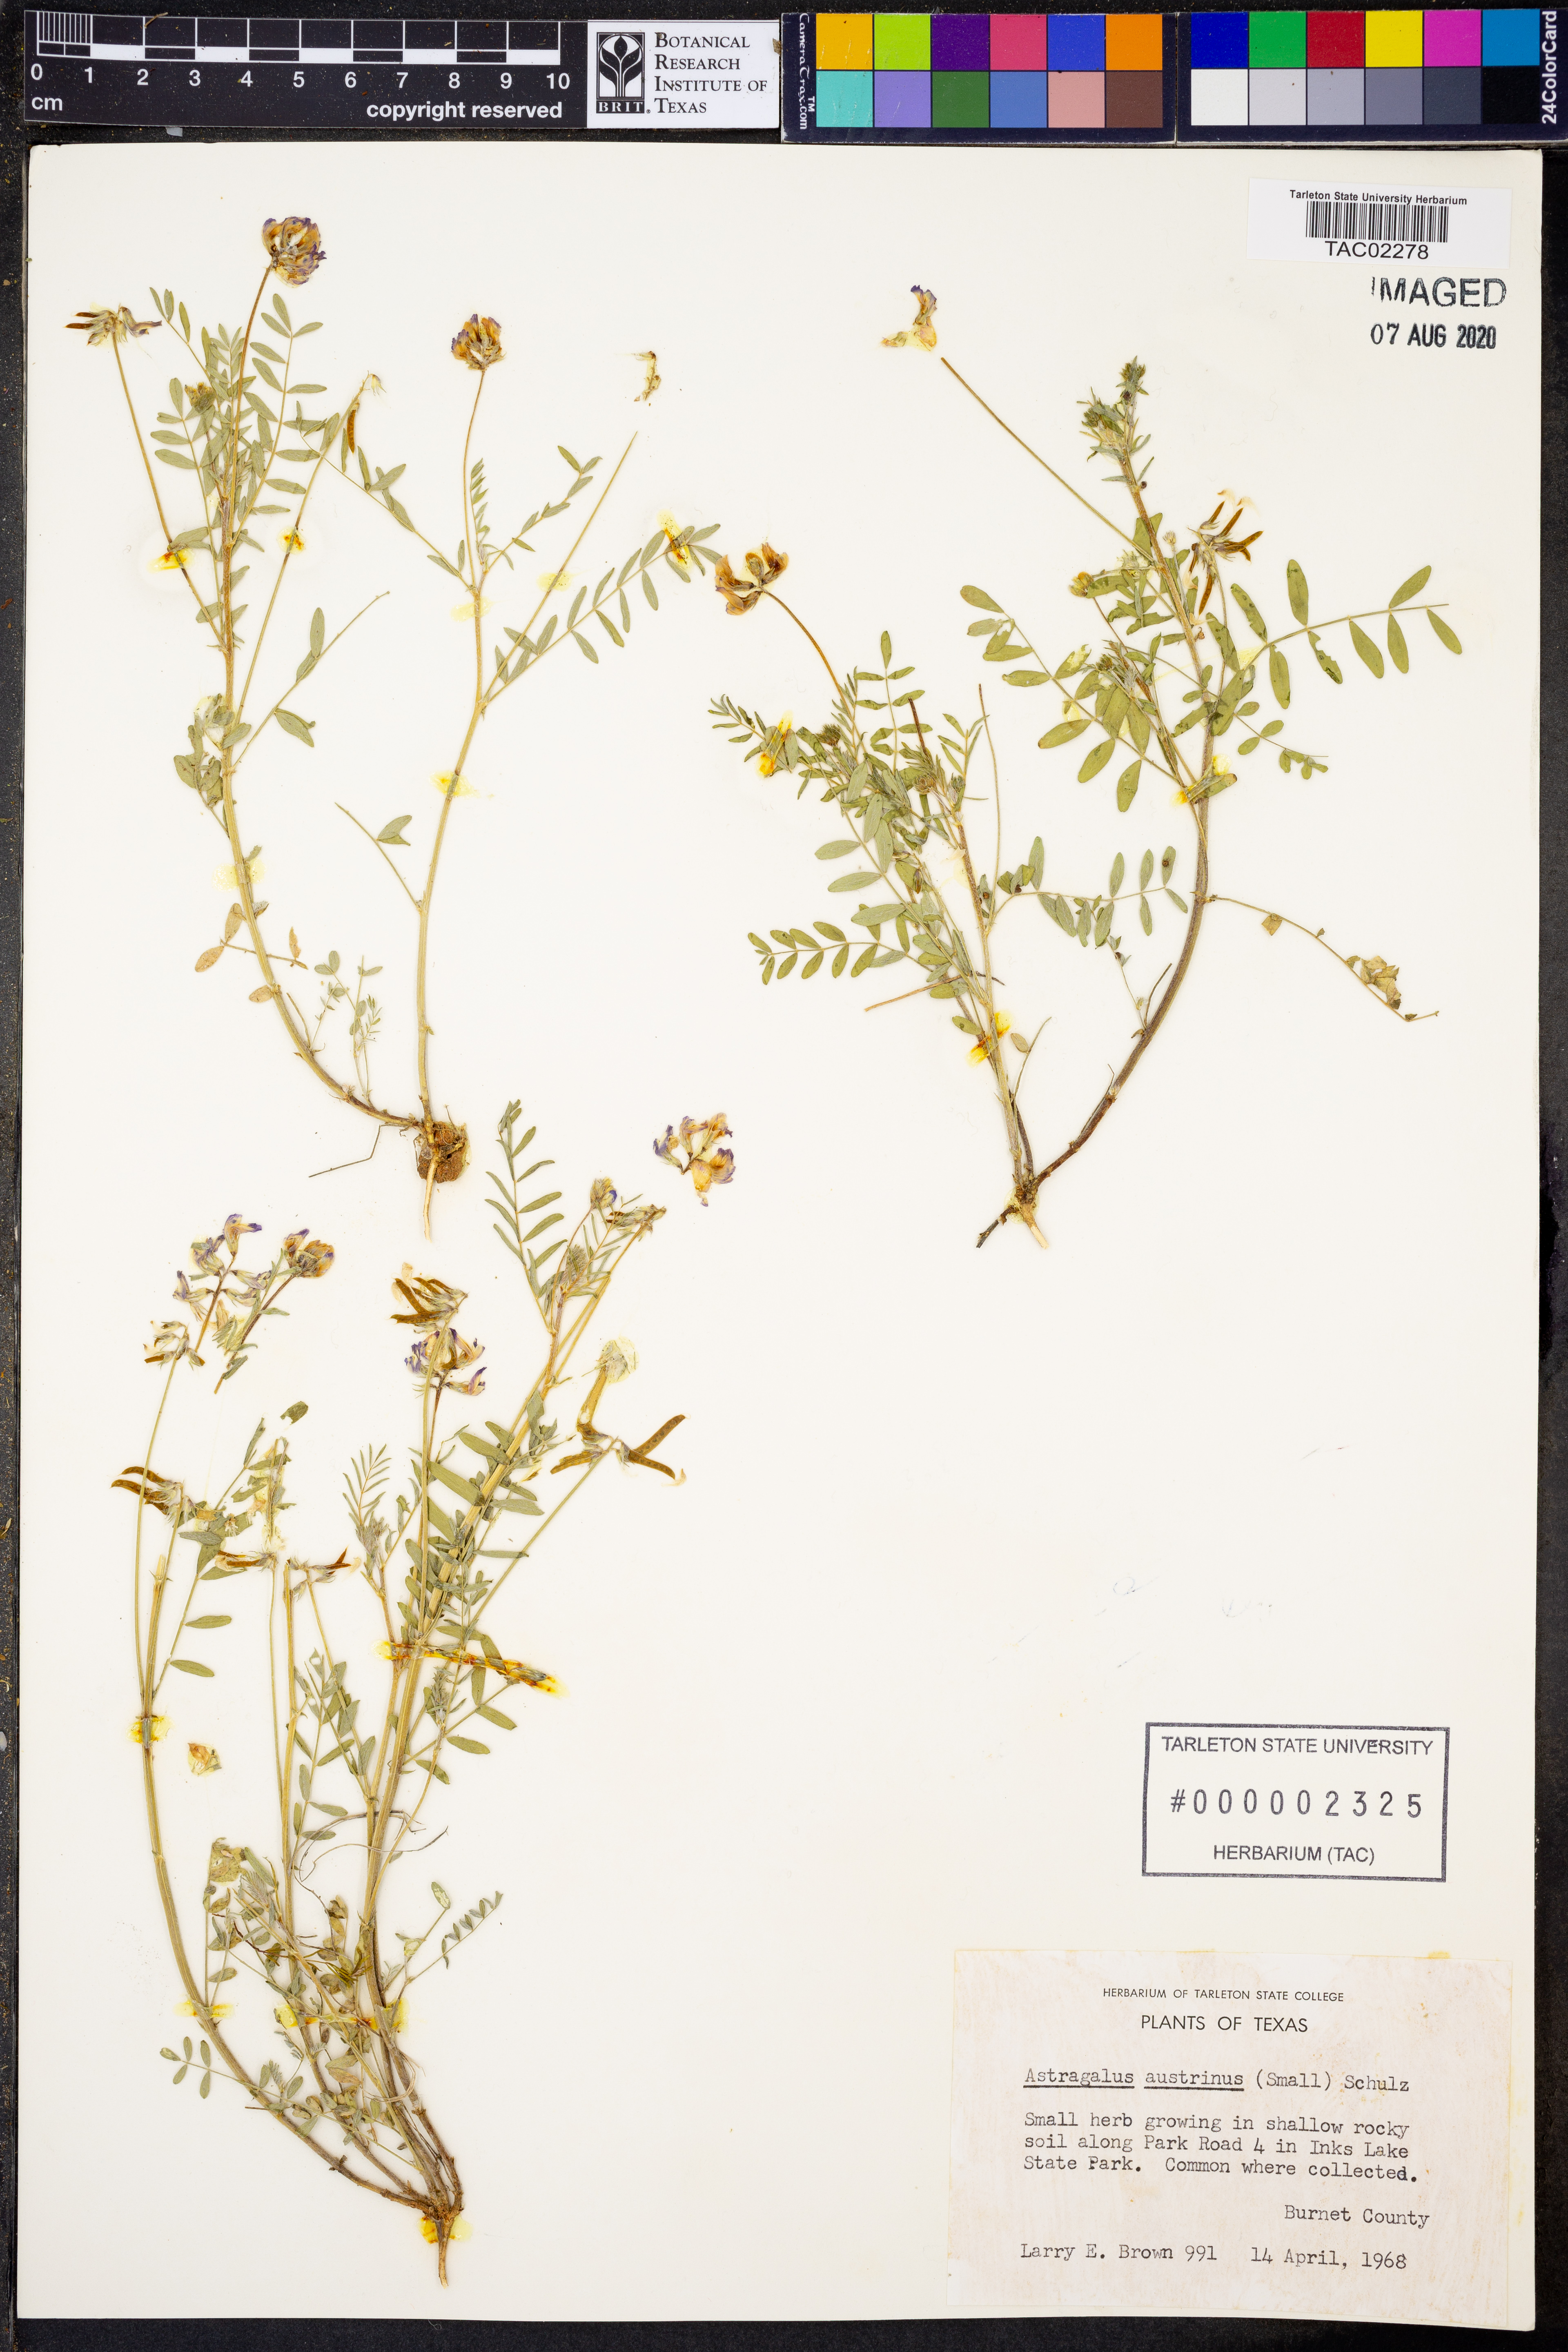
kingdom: Plantae
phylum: Tracheophyta
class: Magnoliopsida
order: Fabales
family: Fabaceae
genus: Astragalus
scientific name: Astragalus nuttallianus
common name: Smallflowered milkvetch
